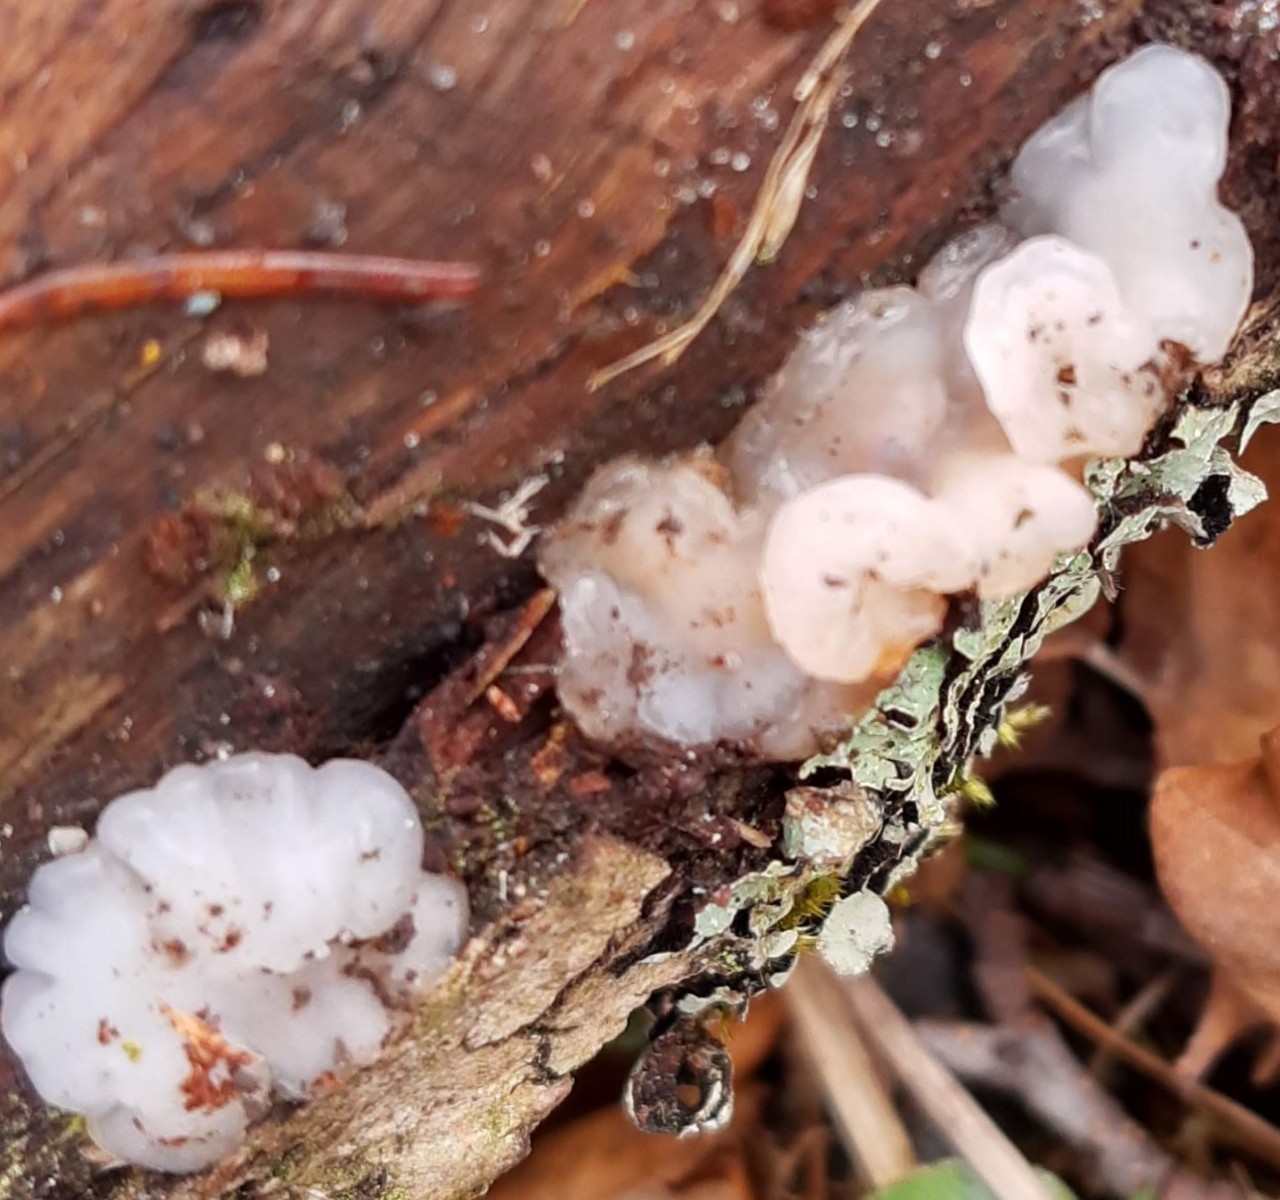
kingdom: Fungi
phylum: Basidiomycota
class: Agaricomycetes
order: Auriculariales
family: Auriculariaceae
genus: Exidia
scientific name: Exidia thuretiana
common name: hvidlig bævretop
